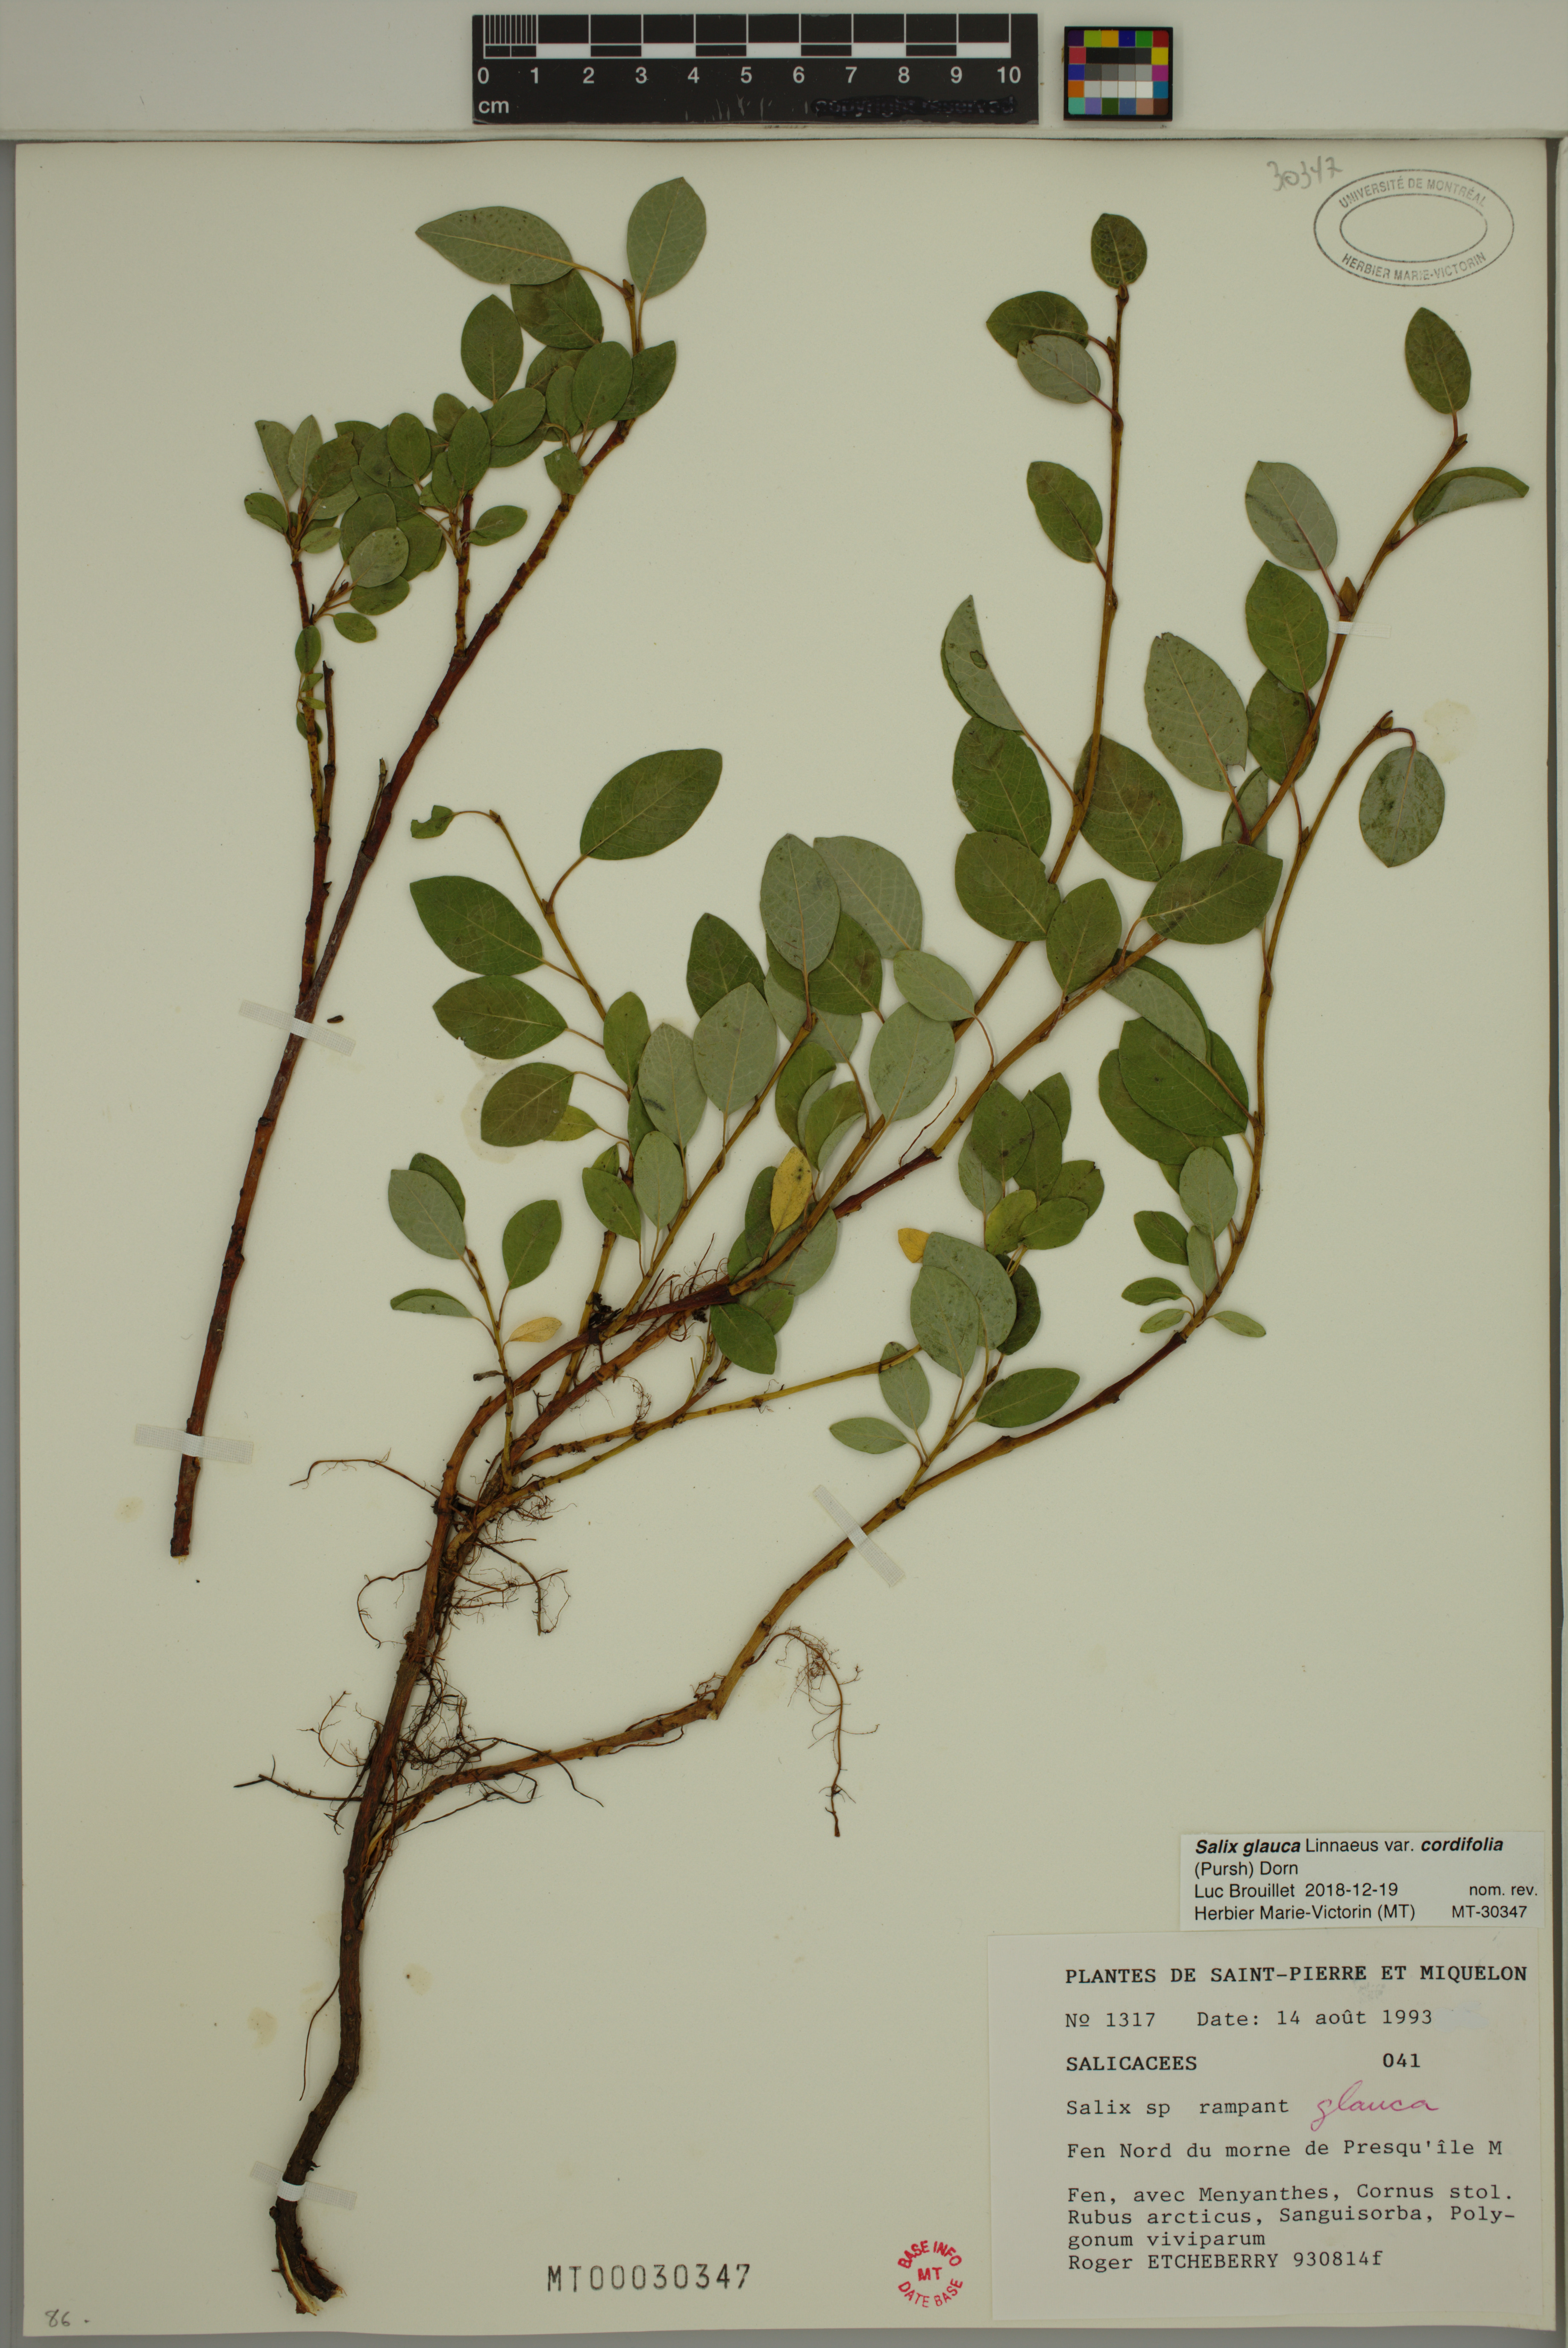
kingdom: Plantae
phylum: Tracheophyta
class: Magnoliopsida
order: Malpighiales
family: Salicaceae
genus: Salix
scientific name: Salix glauca
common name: Glaucous willow
